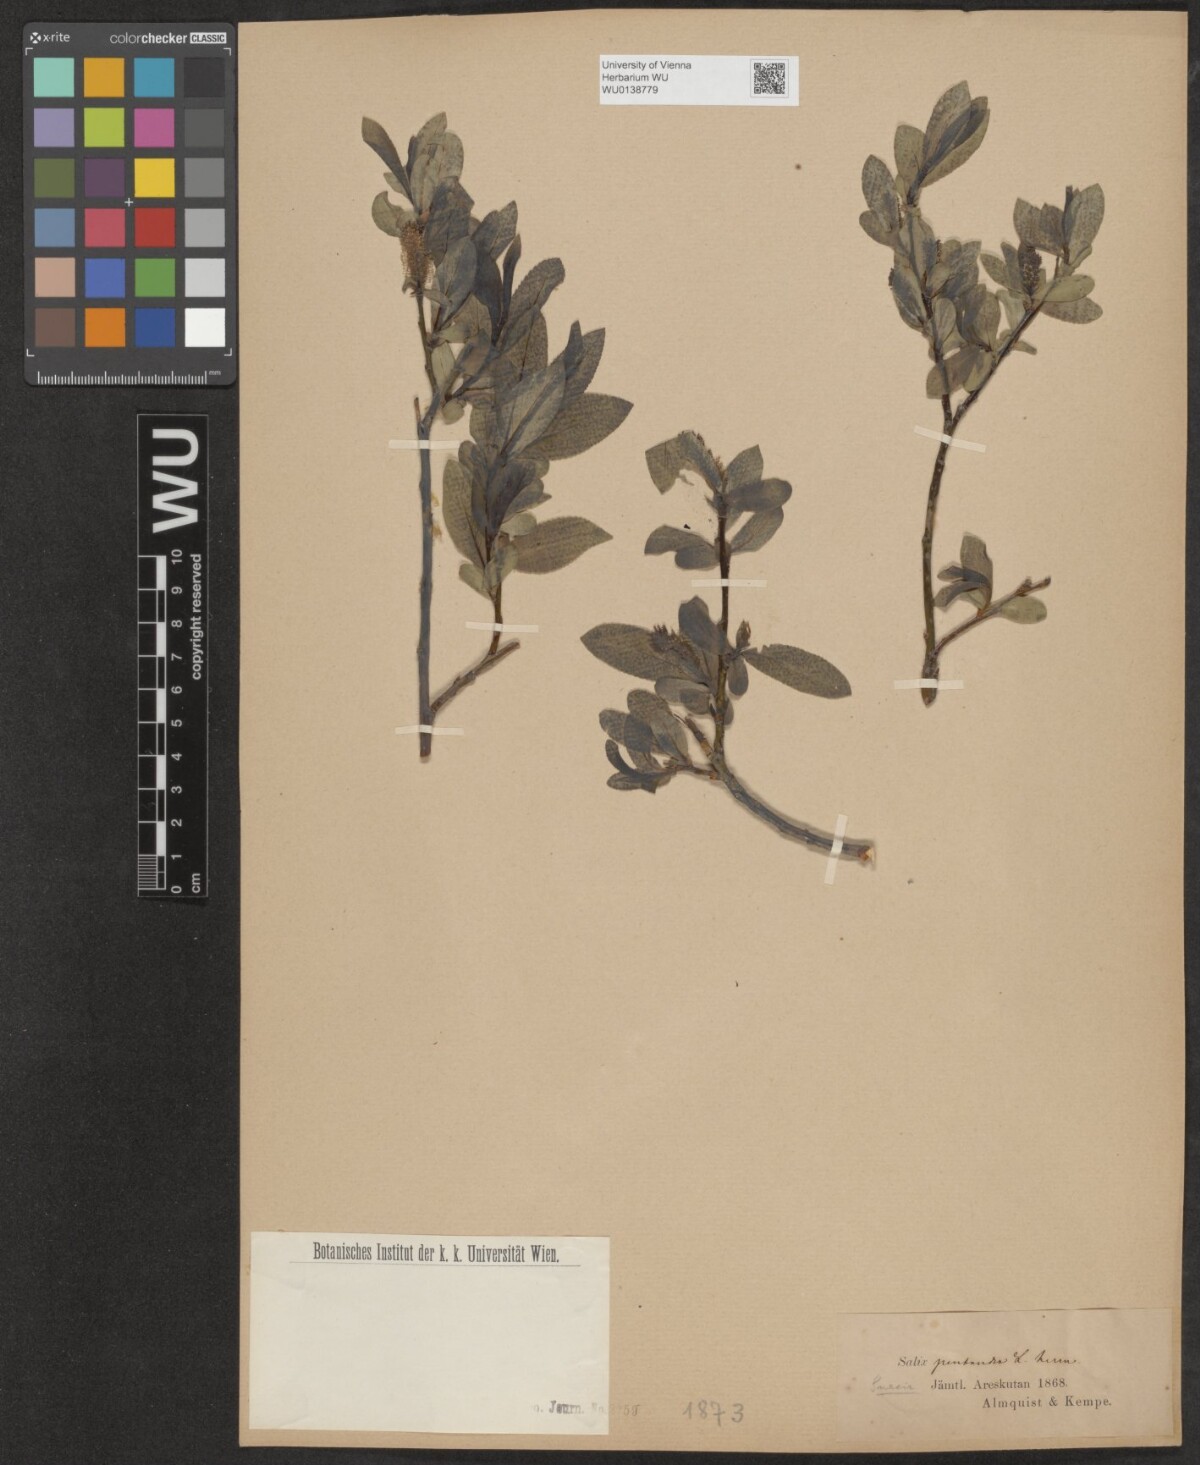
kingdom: Plantae
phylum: Tracheophyta
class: Magnoliopsida
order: Malpighiales
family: Salicaceae
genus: Salix
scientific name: Salix pentandra
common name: Bay willow
